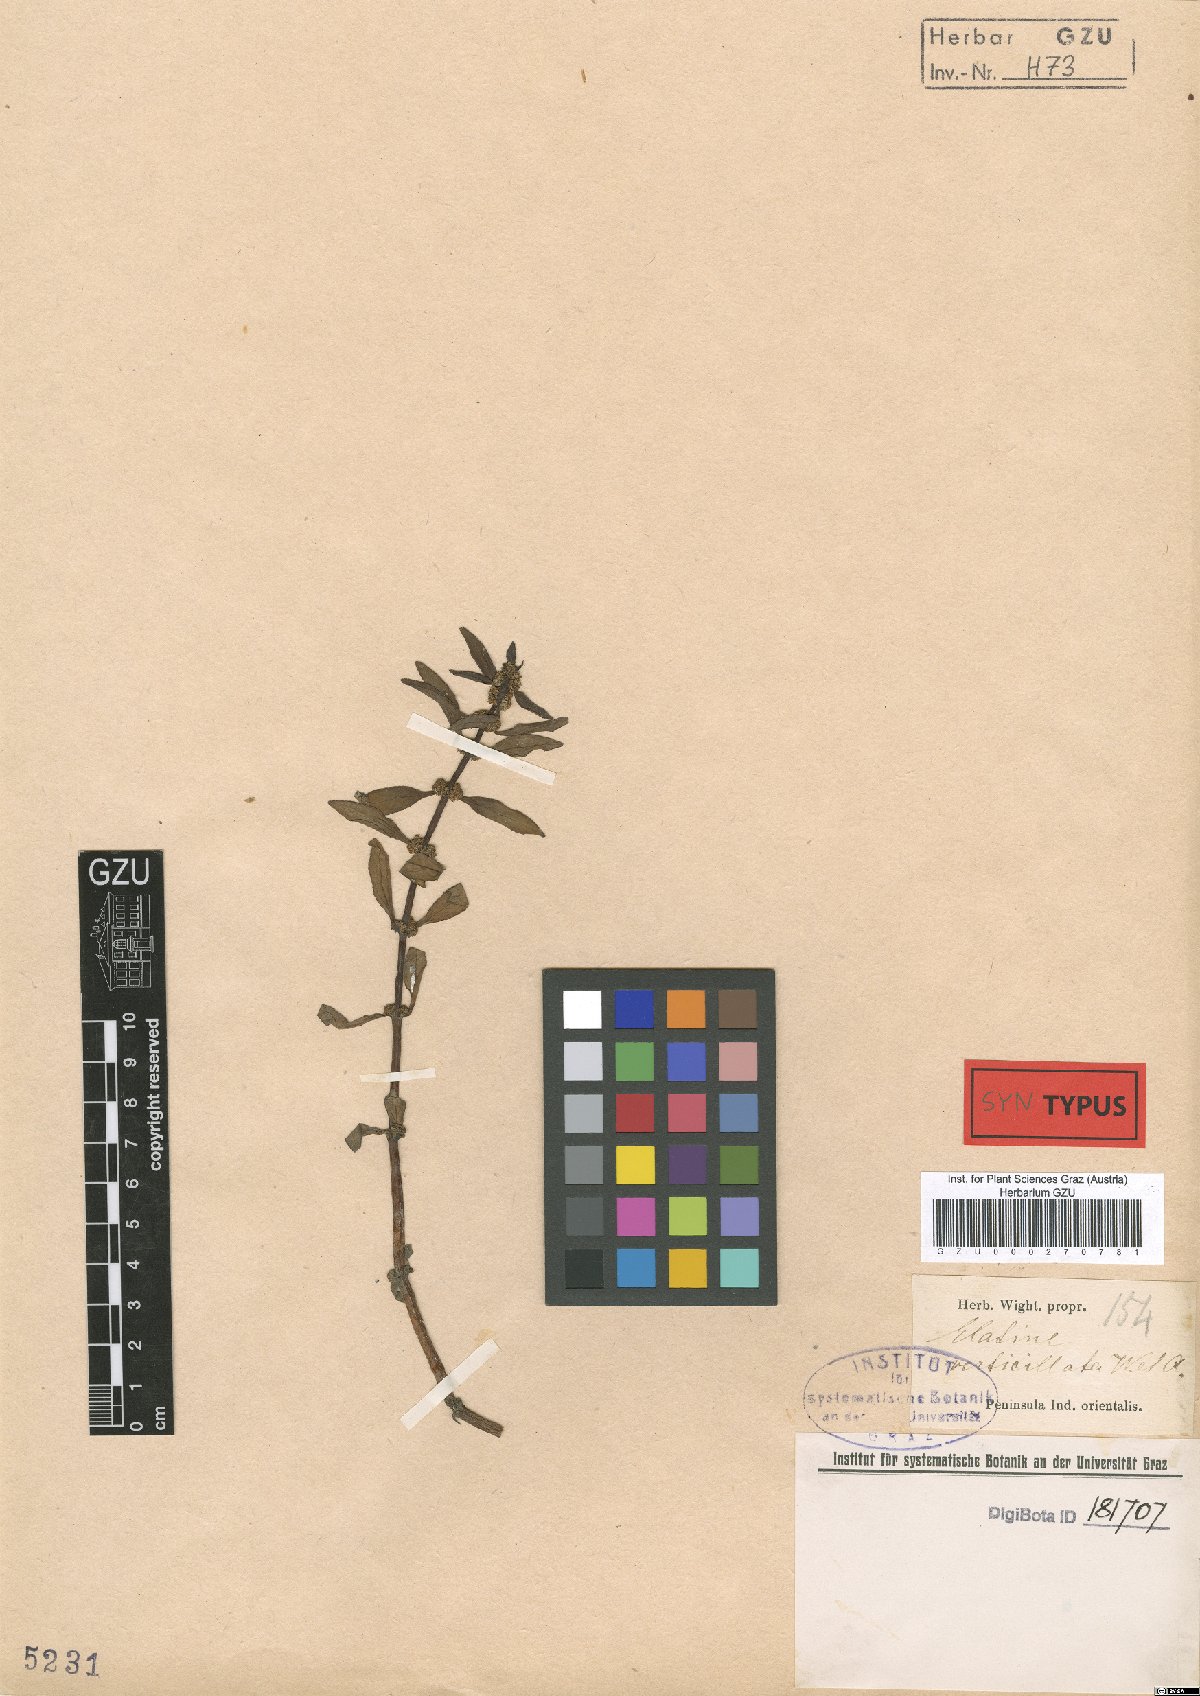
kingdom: Plantae
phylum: Tracheophyta
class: Magnoliopsida
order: Malpighiales
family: Elatinaceae
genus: Bergia
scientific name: Bergia capensis
